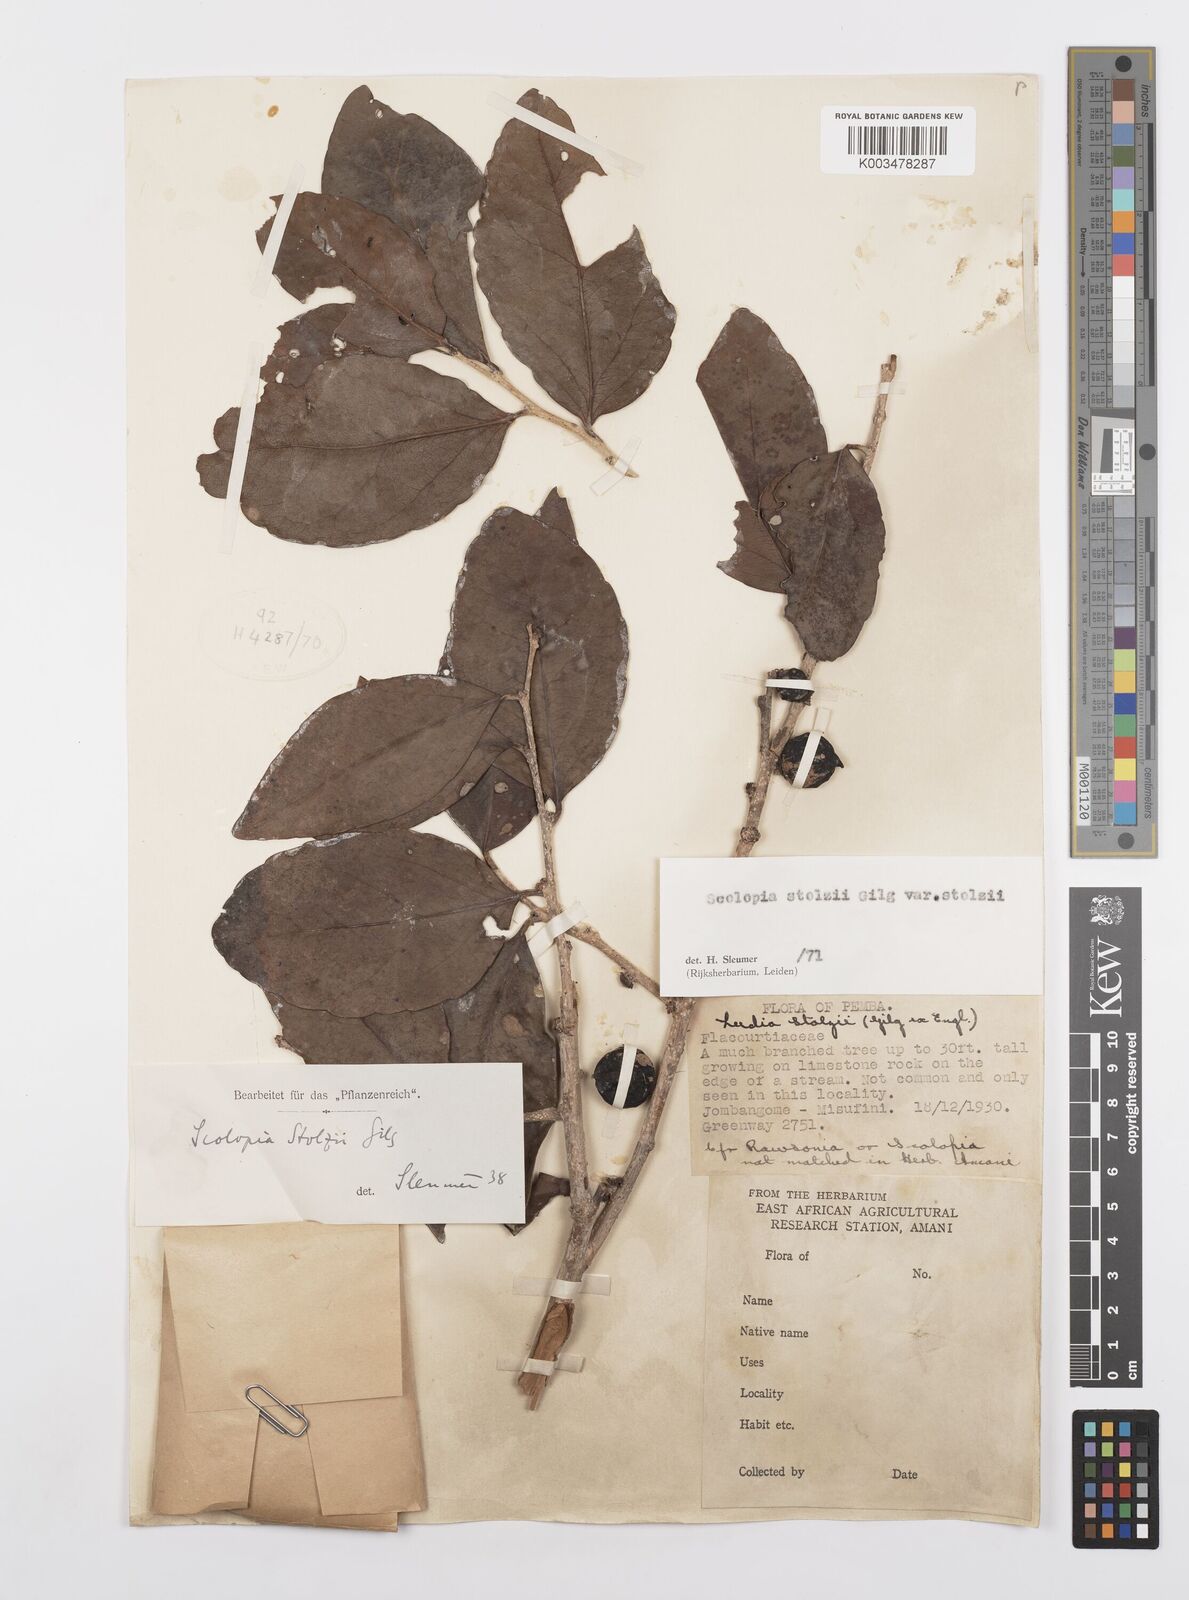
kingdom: Plantae
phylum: Tracheophyta
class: Magnoliopsida
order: Malpighiales
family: Salicaceae
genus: Scolopia
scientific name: Scolopia stolzii
